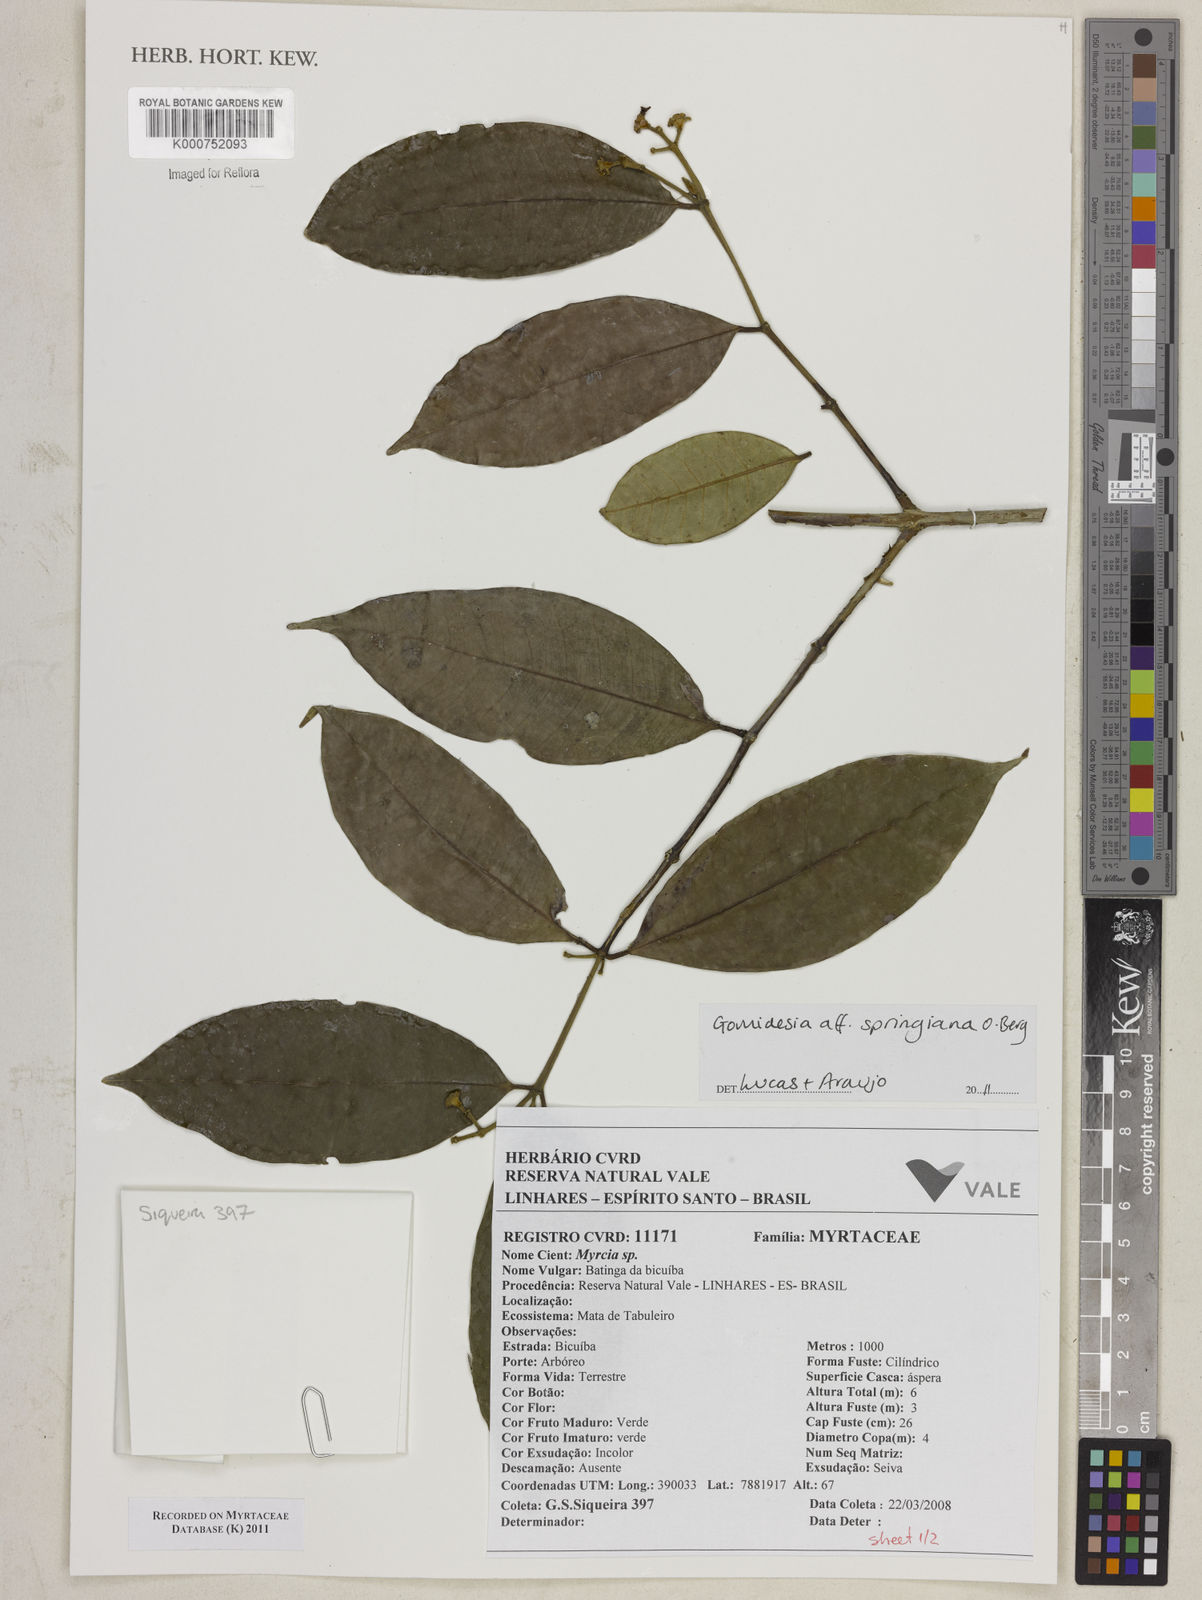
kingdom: Plantae
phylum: Tracheophyta
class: Magnoliopsida
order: Myrtales
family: Myrtaceae
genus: Myrcia
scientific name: Myrcia springiana
